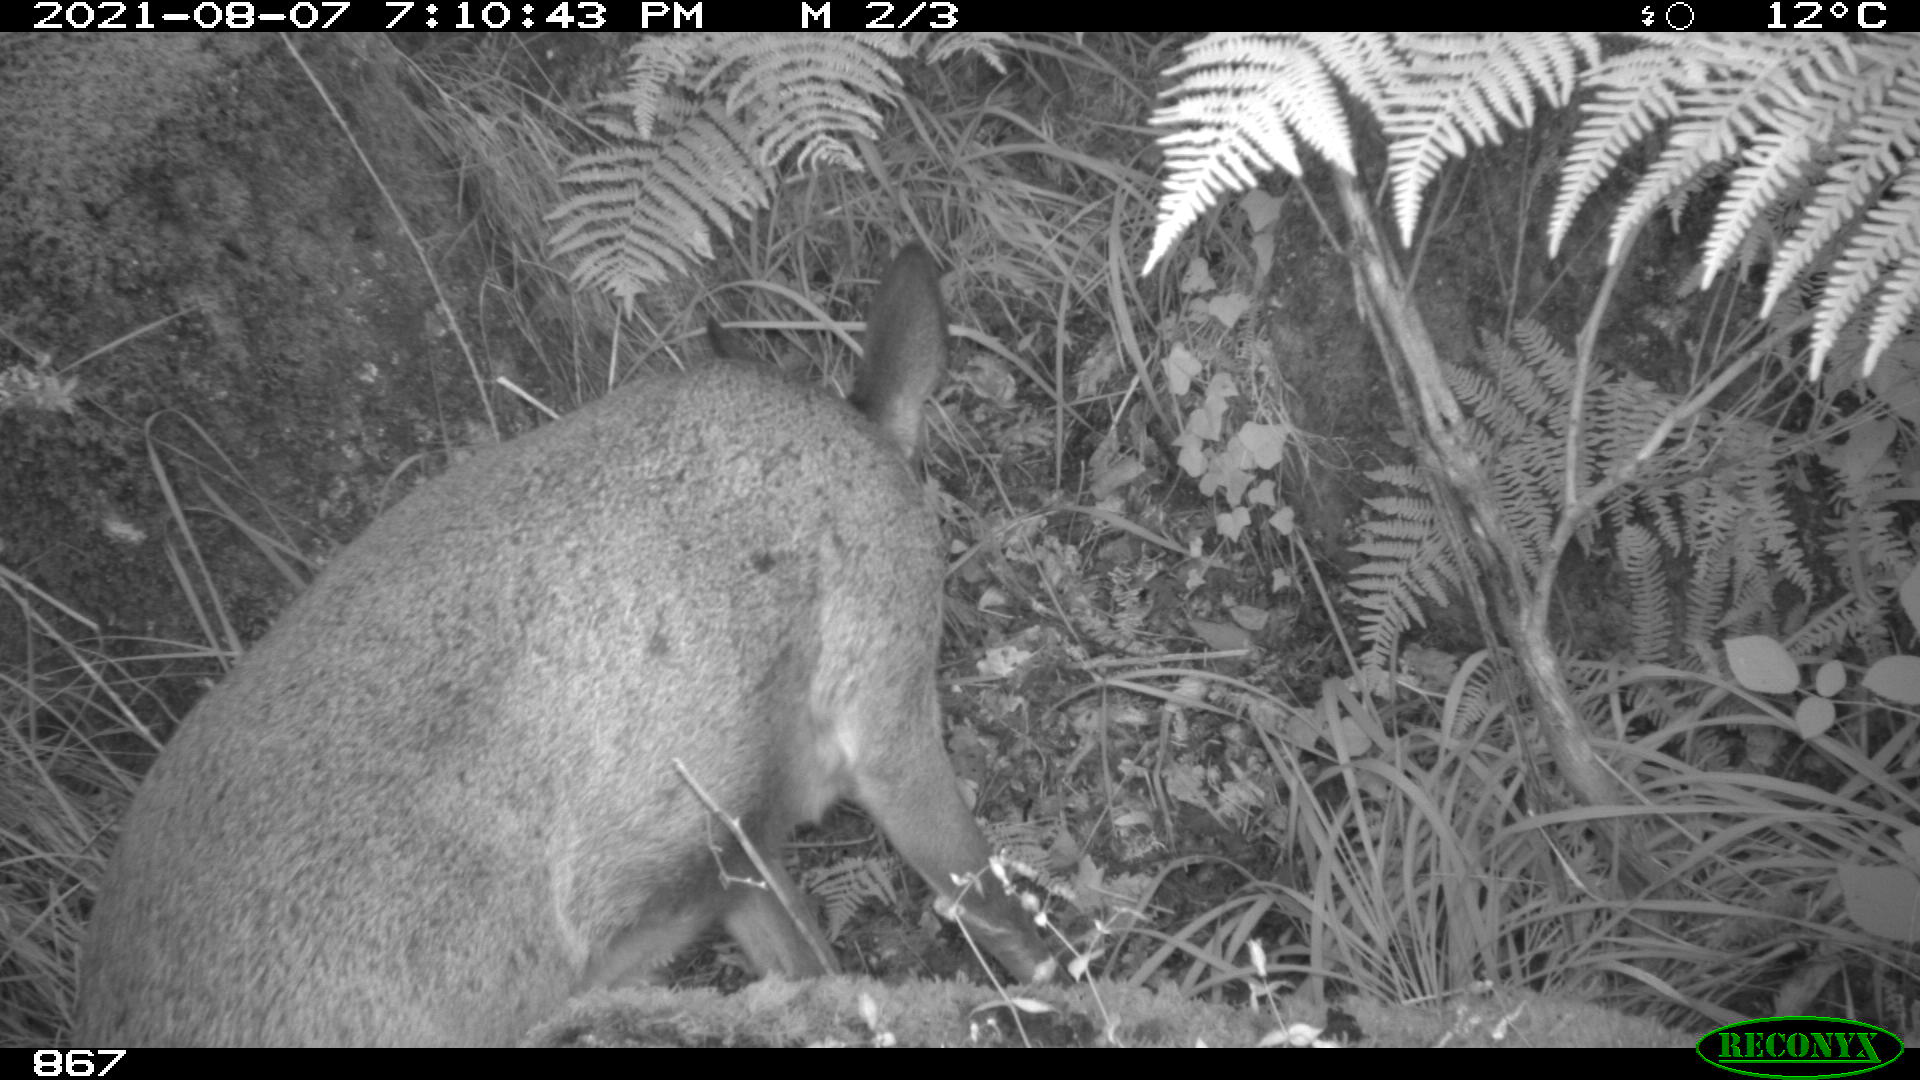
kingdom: Animalia
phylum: Chordata
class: Mammalia
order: Perissodactyla
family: Equidae
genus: Equus
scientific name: Equus caballus
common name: Horse
